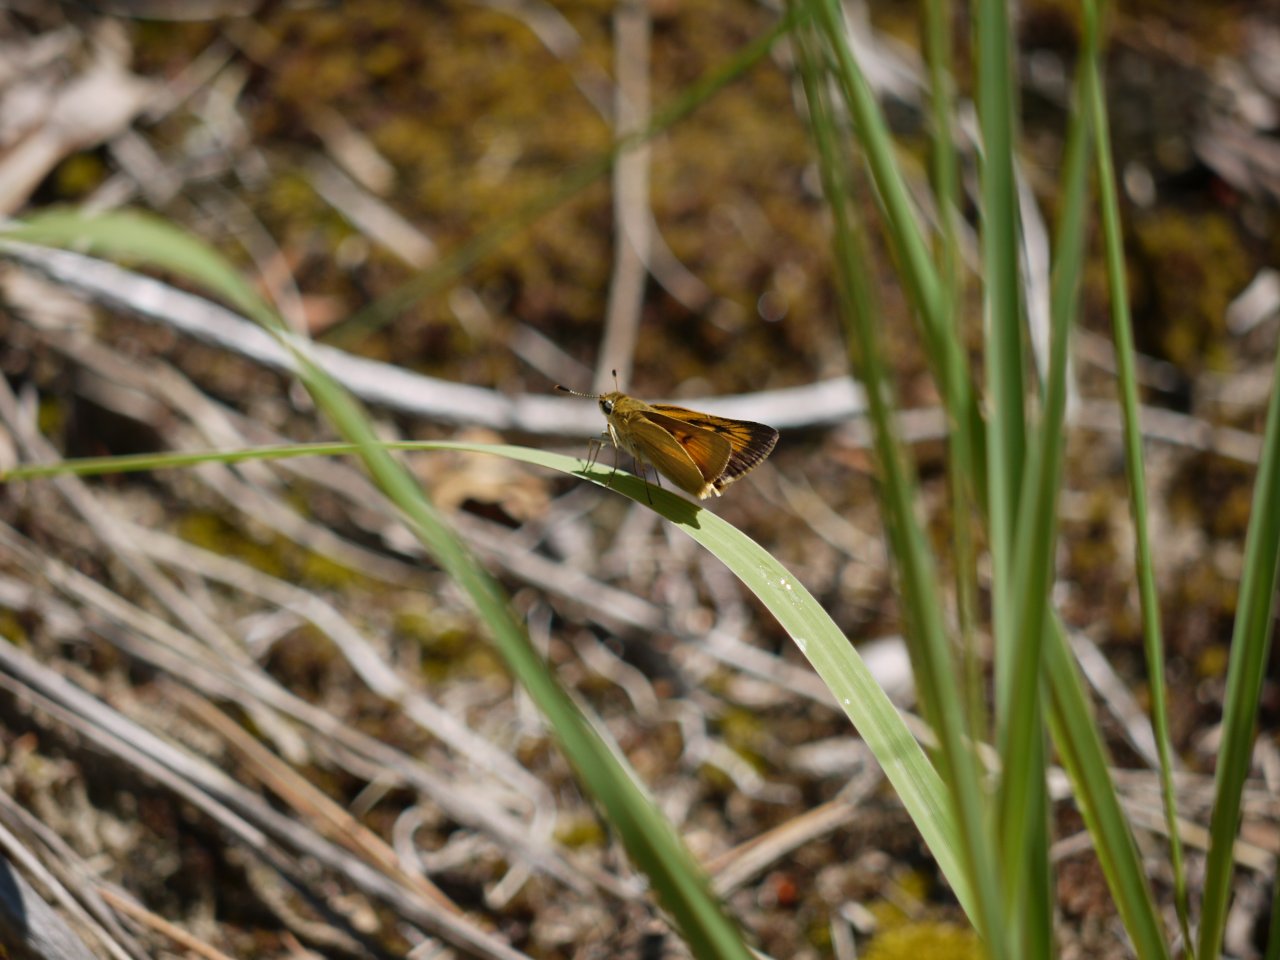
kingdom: Animalia
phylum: Arthropoda
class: Insecta
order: Lepidoptera
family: Hesperiidae
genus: Atrytone
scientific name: Atrytone delaware
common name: Delaware Skipper
